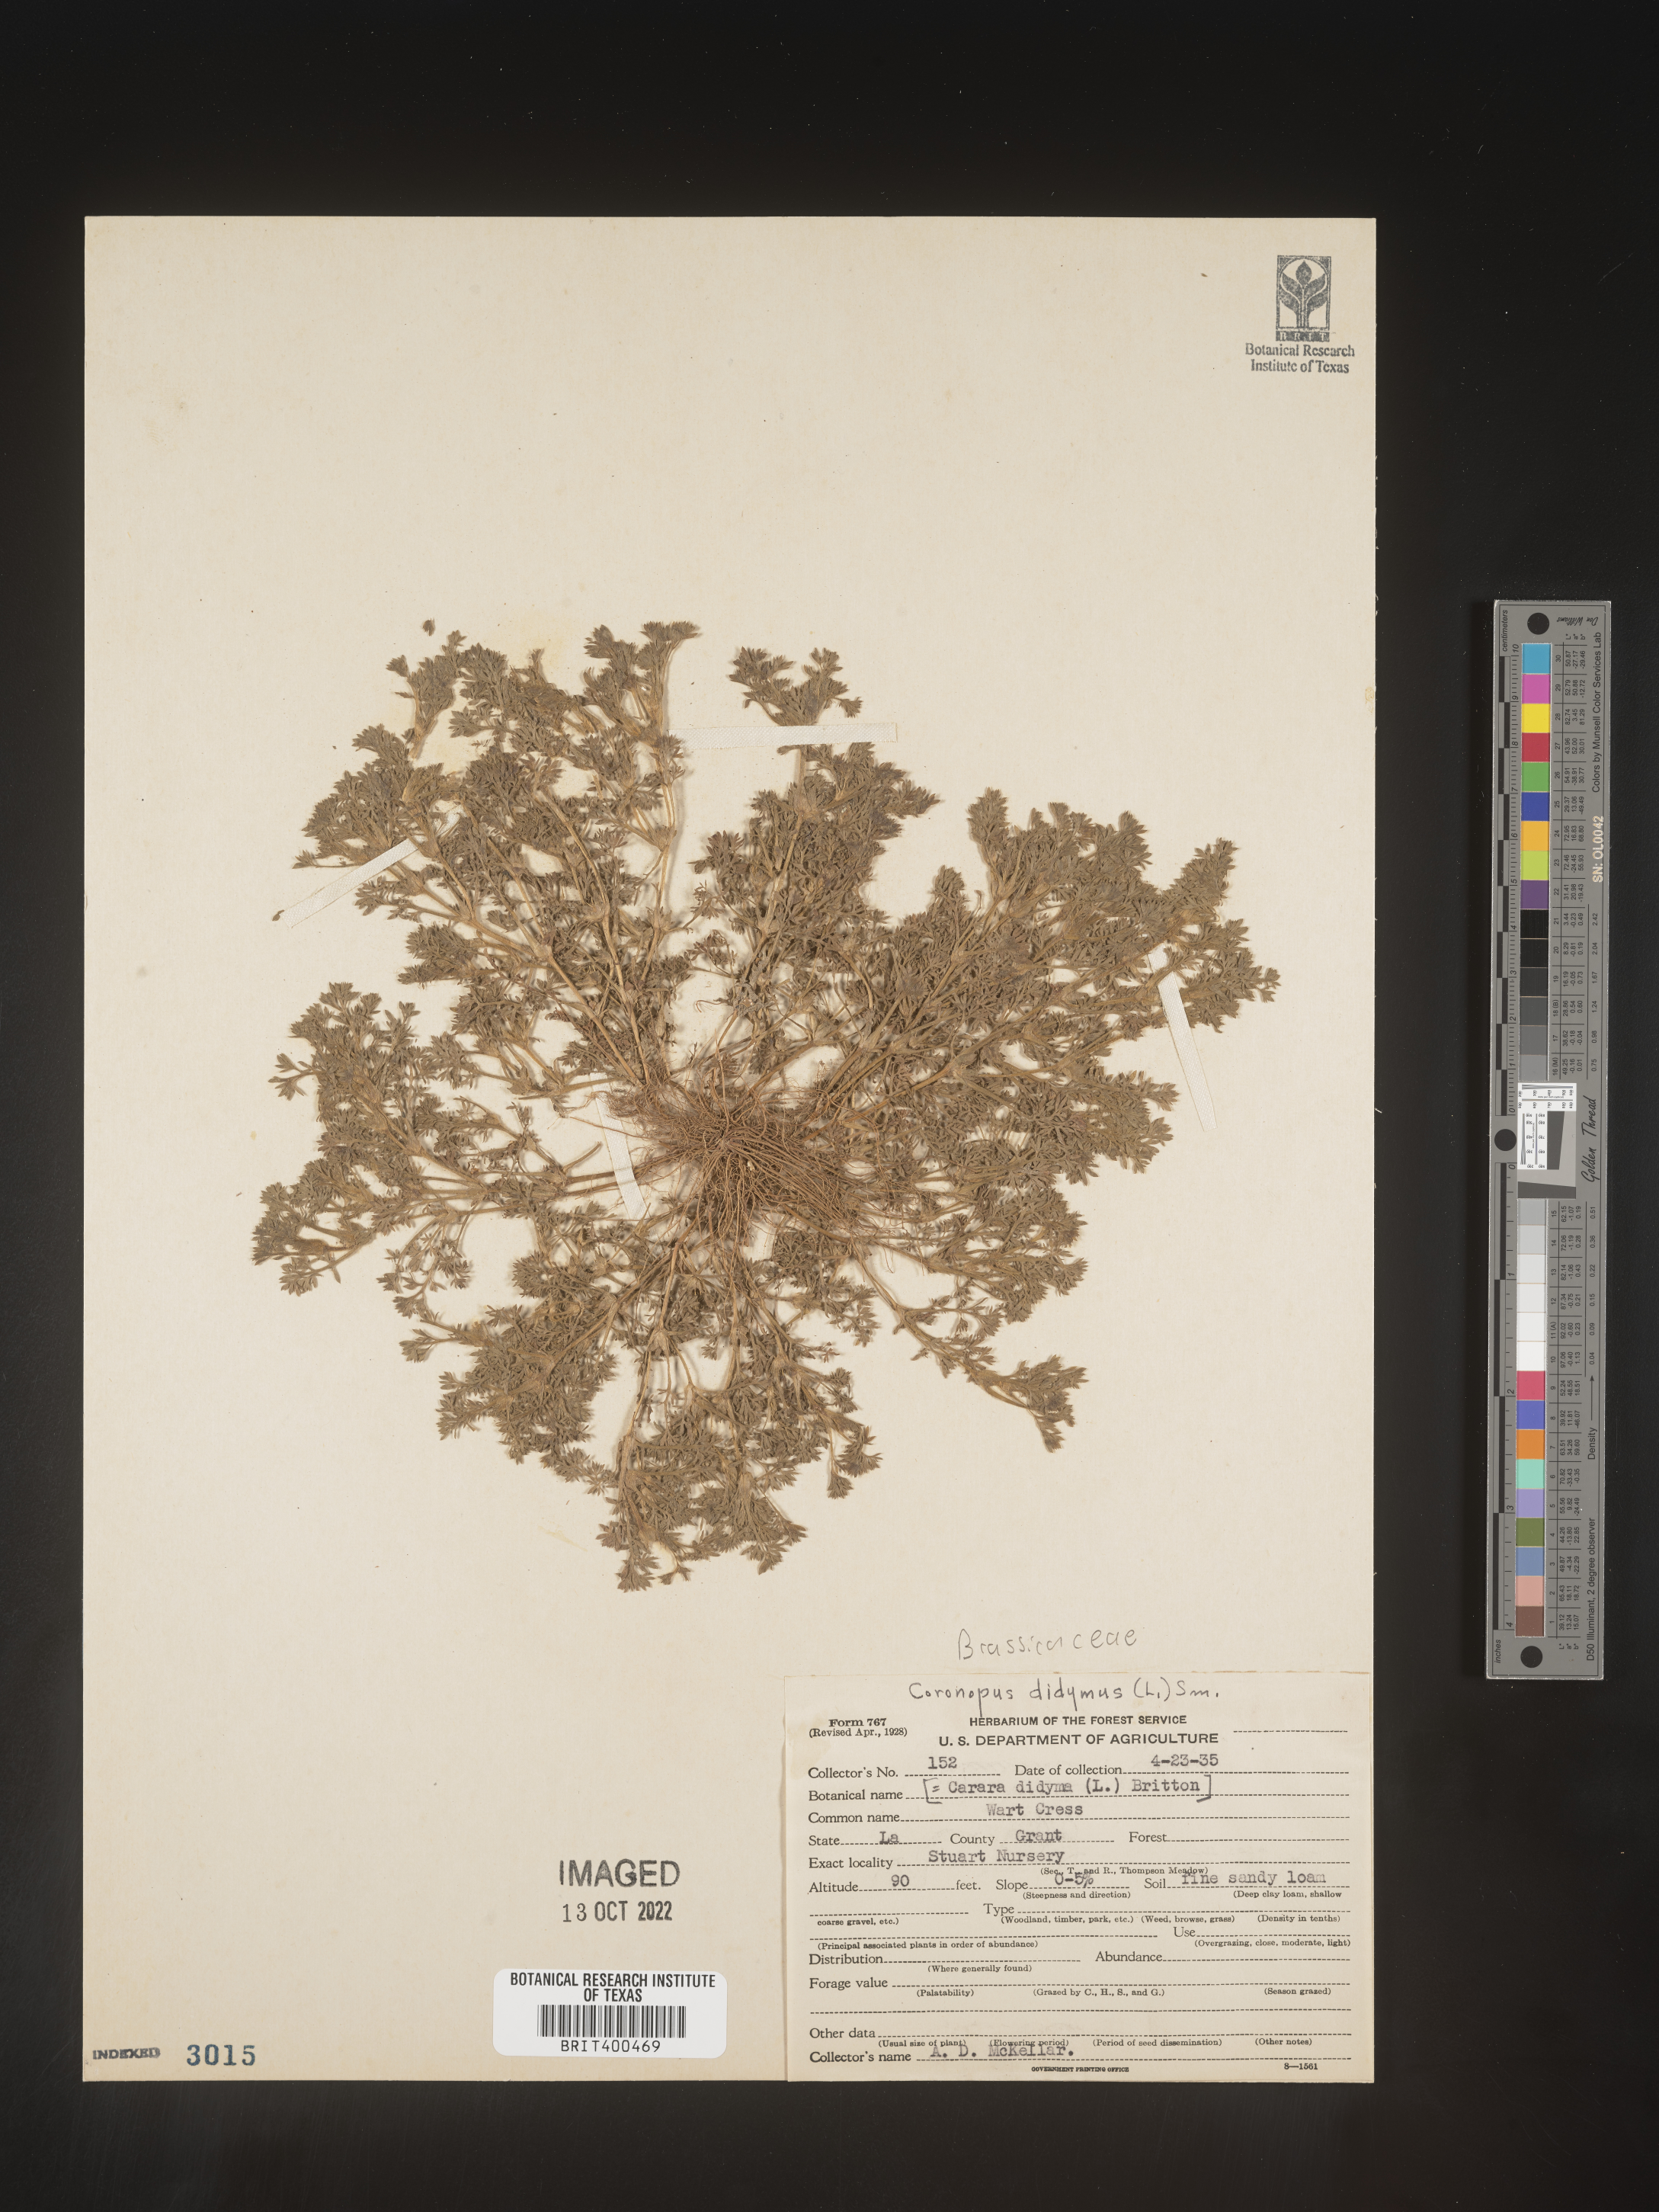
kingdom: Plantae
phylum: Tracheophyta
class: Magnoliopsida
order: Brassicales
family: Brassicaceae
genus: Coronopus
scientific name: Coronopus
